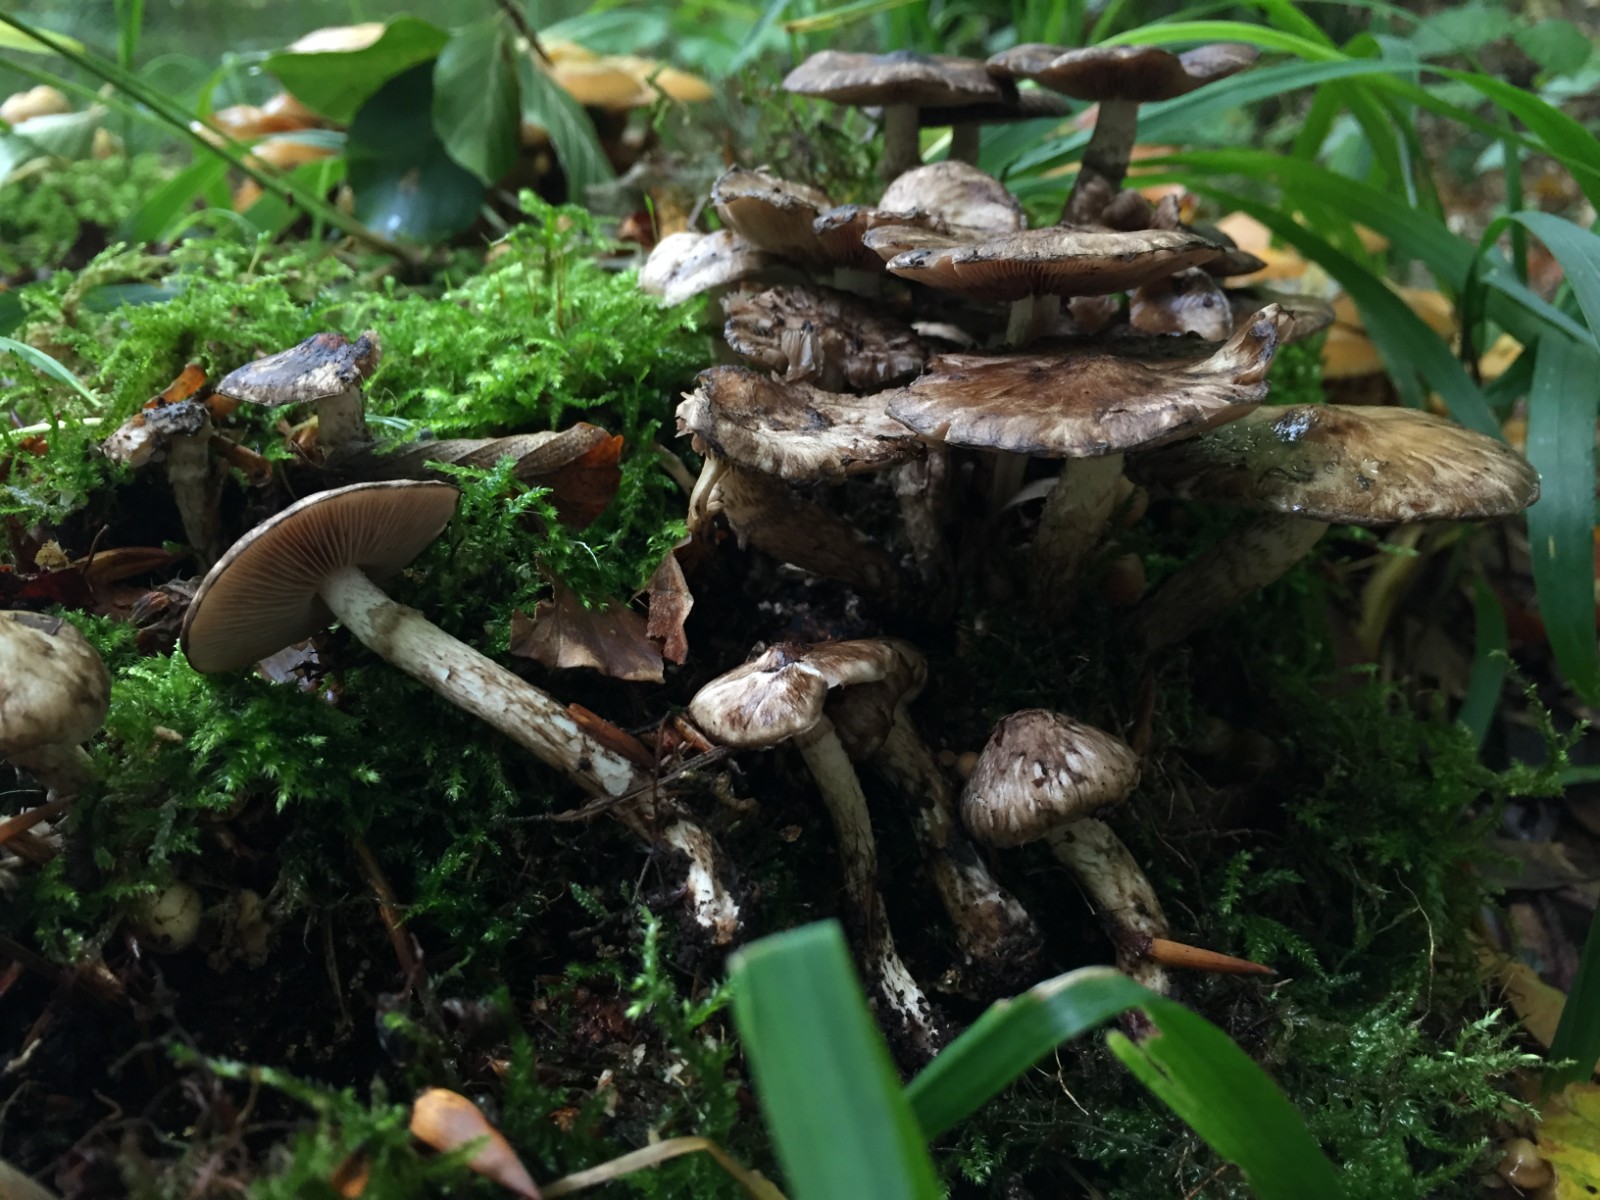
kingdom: Fungi
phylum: Basidiomycota
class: Agaricomycetes
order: Agaricales
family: Psathyrellaceae
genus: Psathyrella
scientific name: Psathyrella maculata
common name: sortskællet mørkhat
